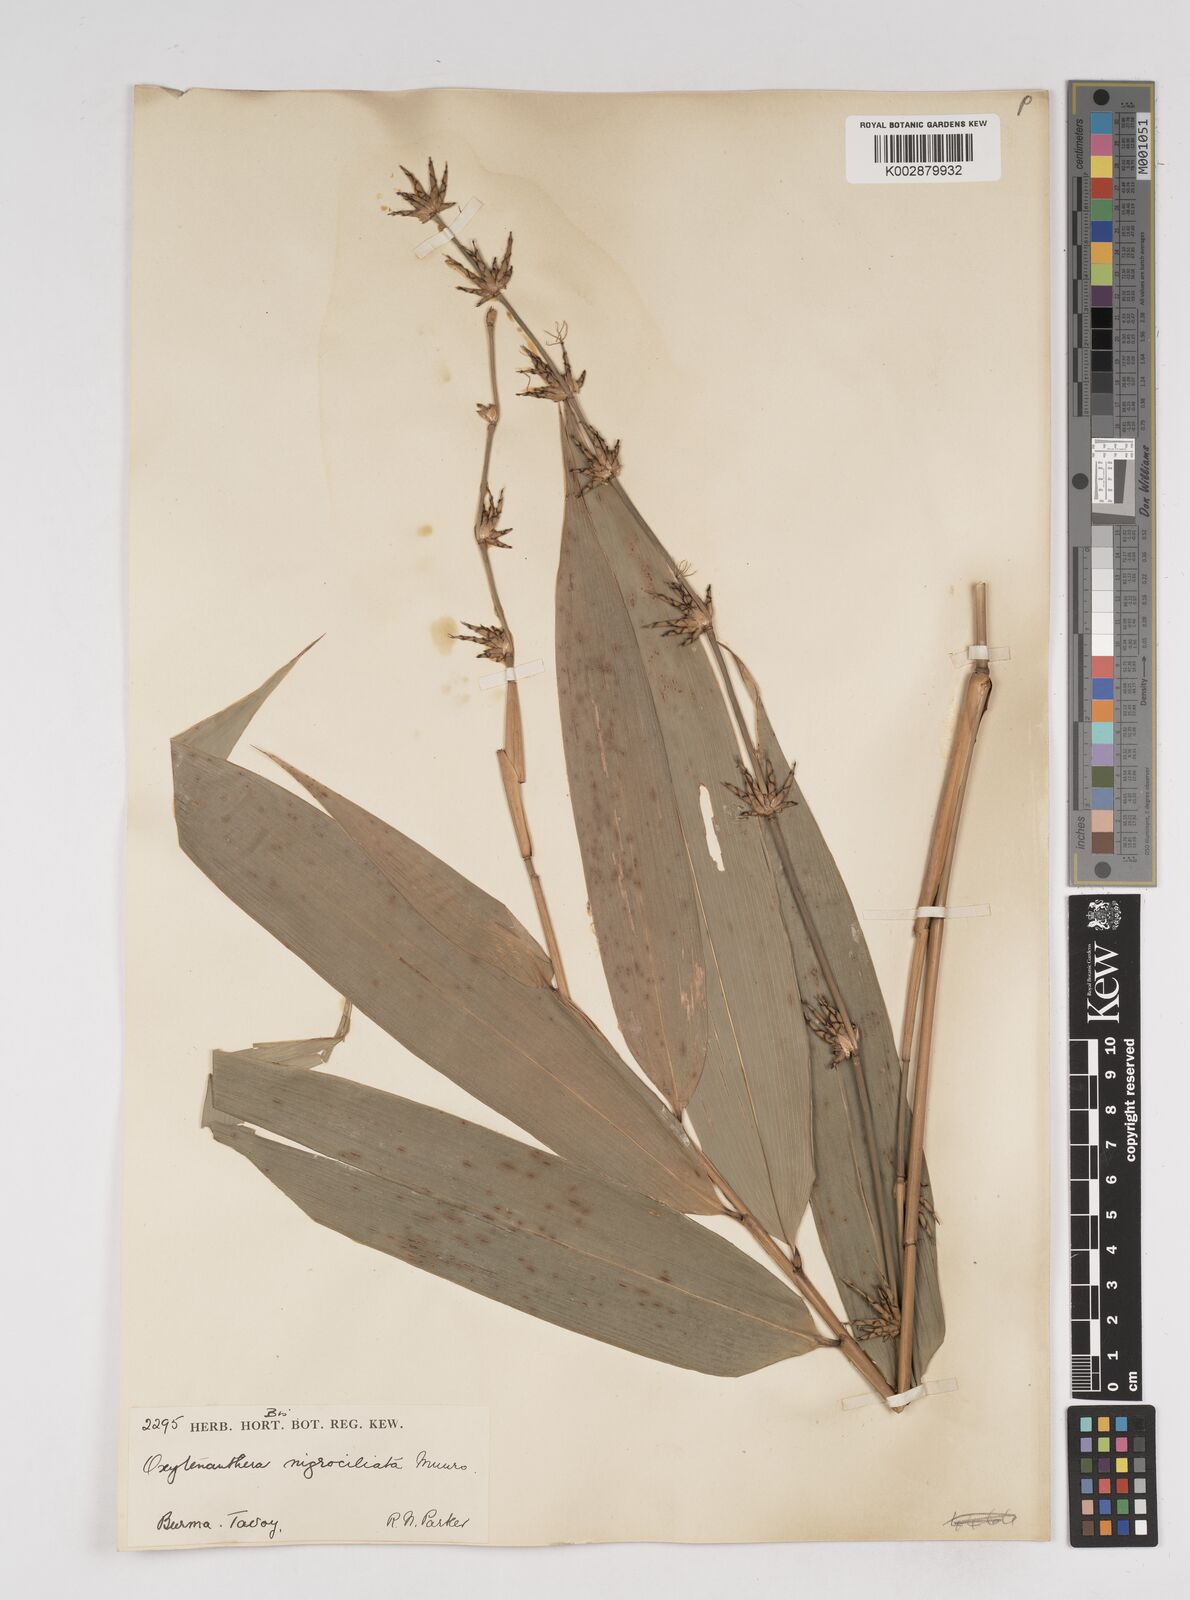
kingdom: Plantae
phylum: Tracheophyta
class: Liliopsida
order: Poales
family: Poaceae
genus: Gigantochloa
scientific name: Gigantochloa nigrociliata
